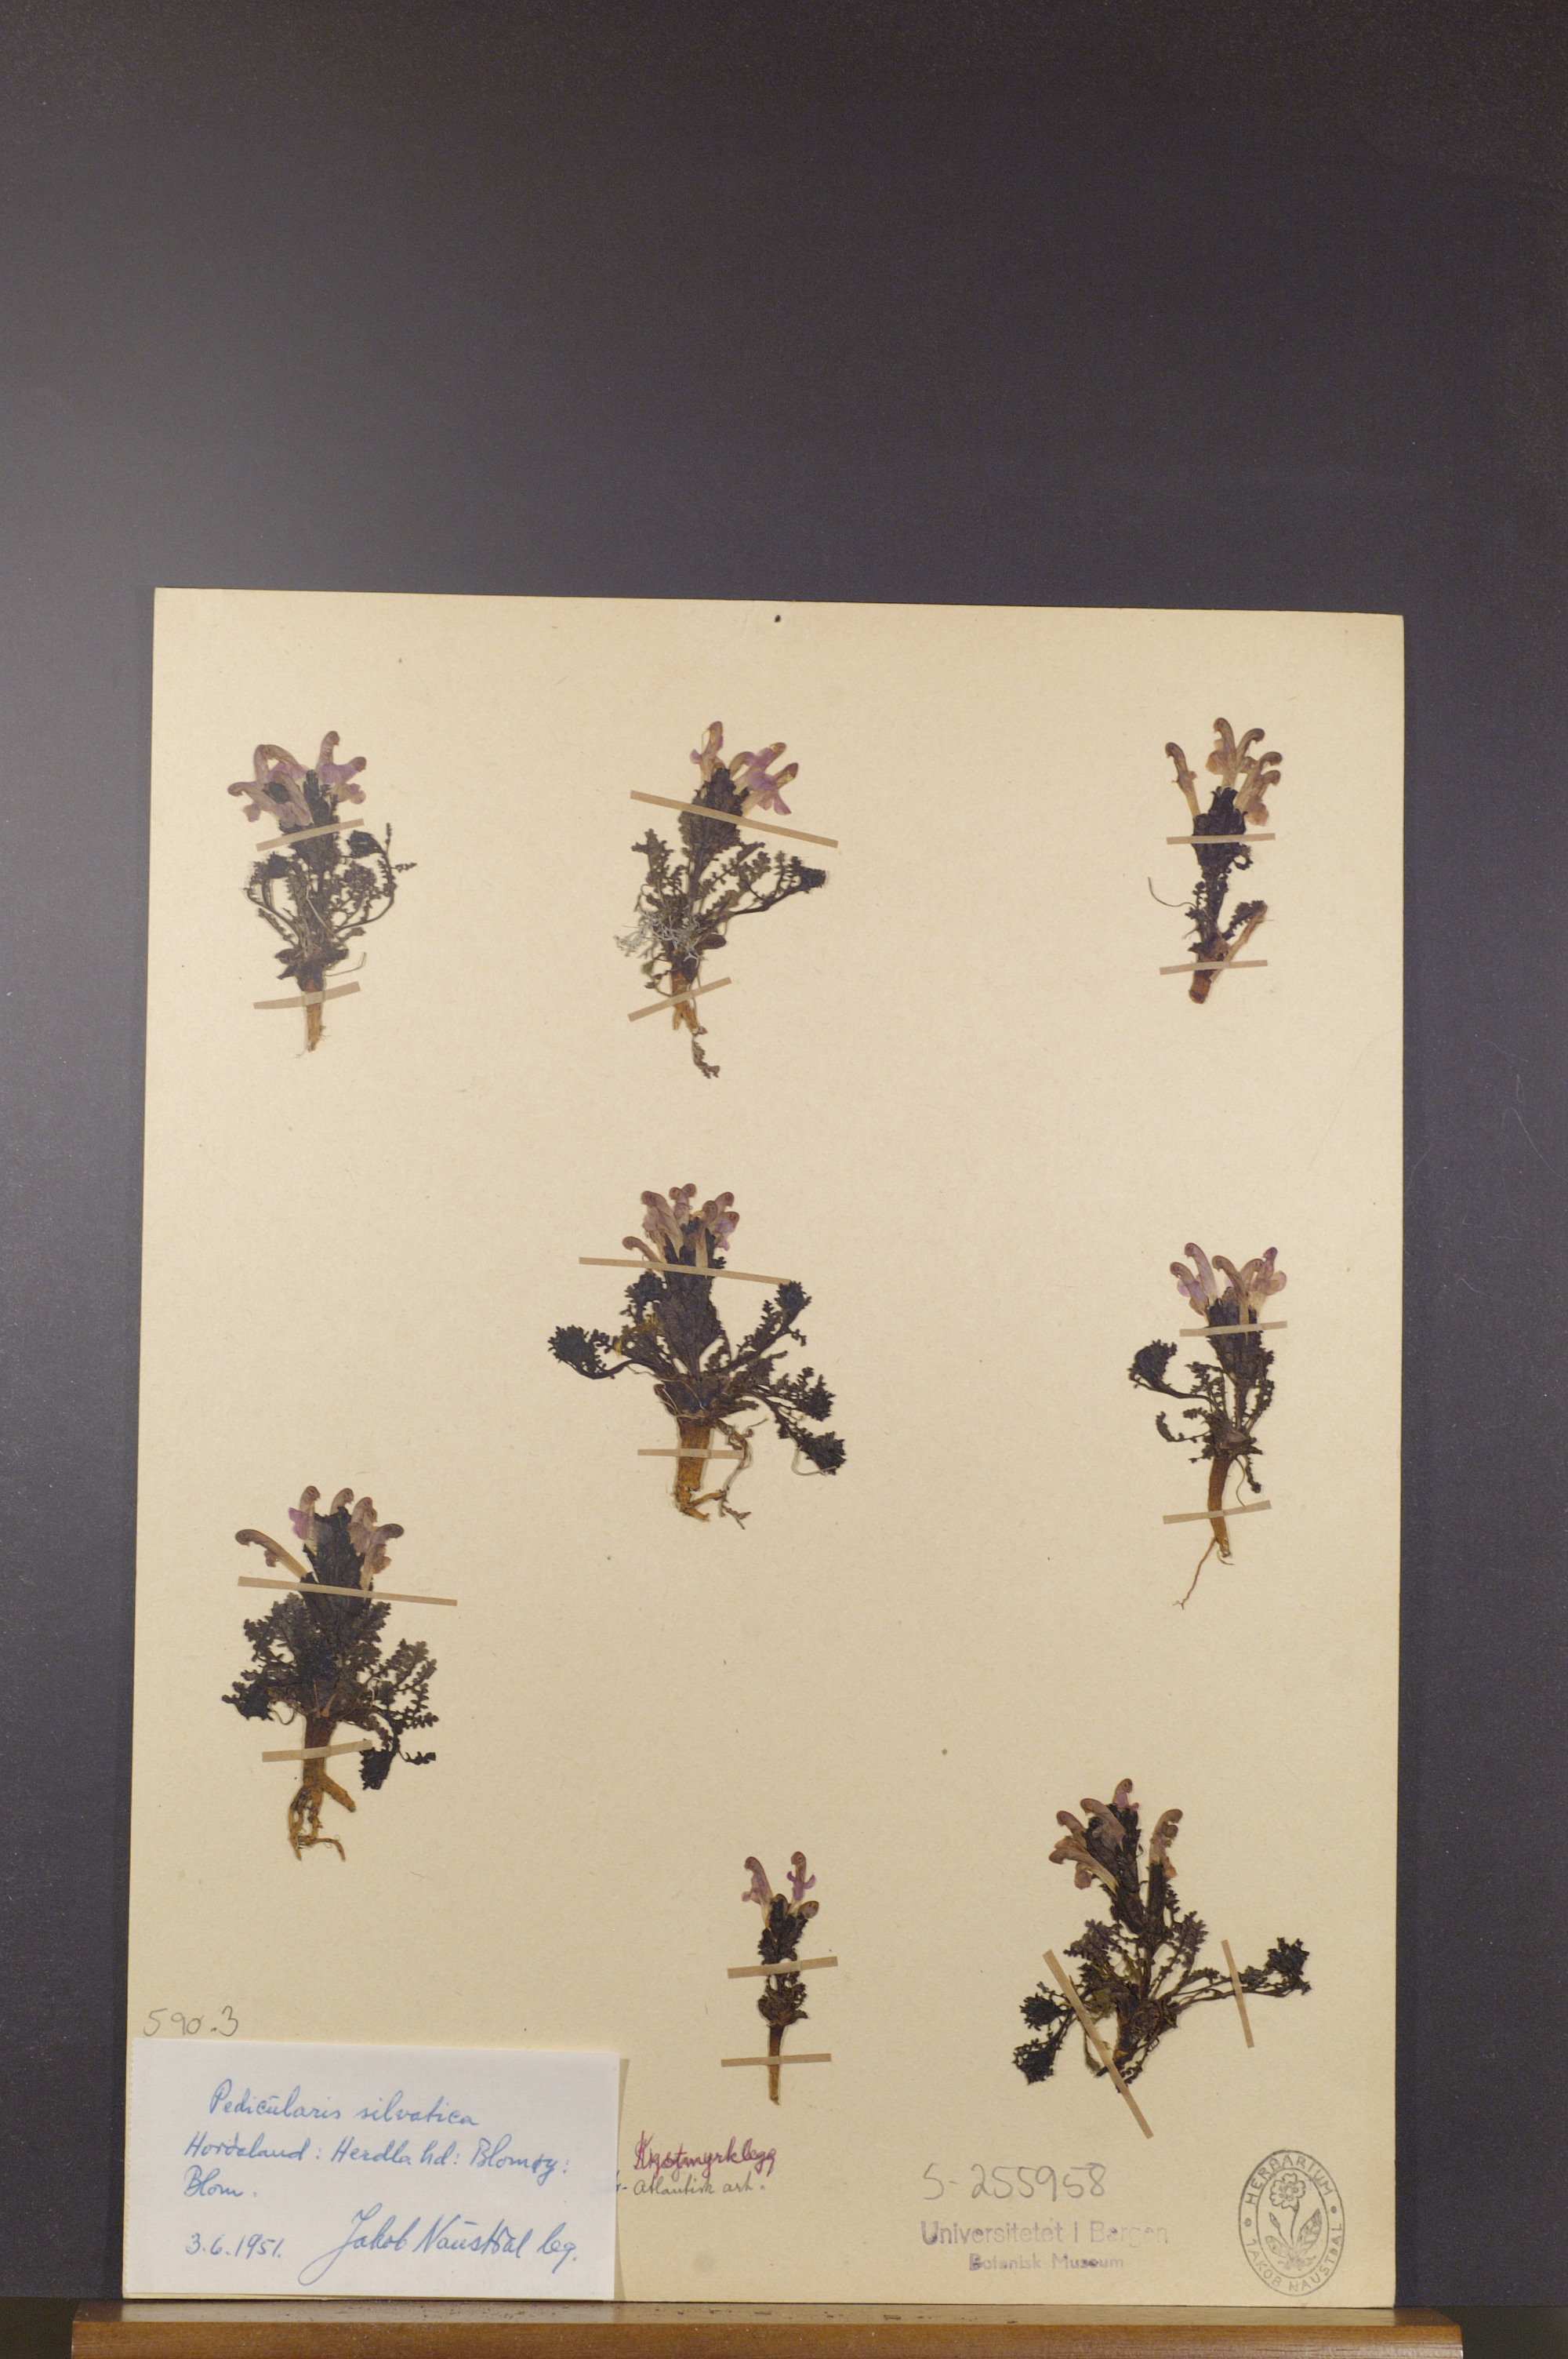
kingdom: Plantae
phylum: Tracheophyta
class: Magnoliopsida
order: Lamiales
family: Orobanchaceae
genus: Pedicularis
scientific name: Pedicularis sylvatica
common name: Lousewort
